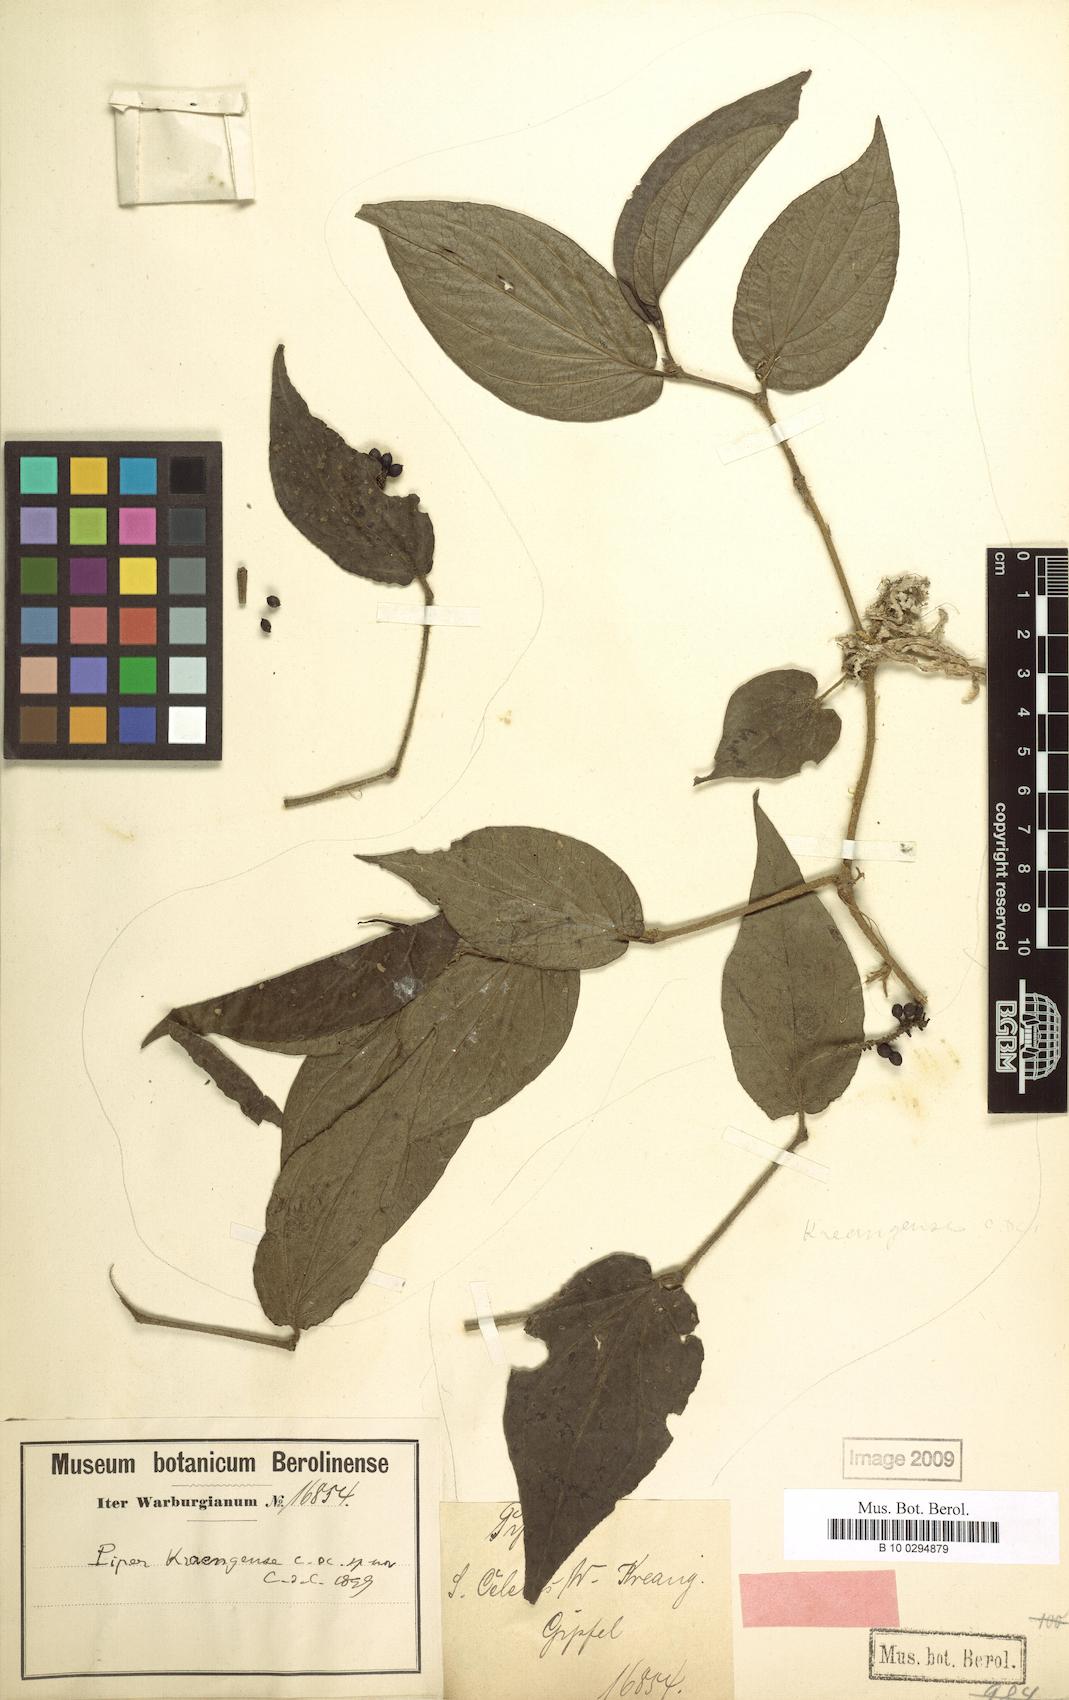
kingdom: Plantae
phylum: Tracheophyta
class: Magnoliopsida
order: Piperales
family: Piperaceae
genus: Piper
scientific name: Piper kreangense
